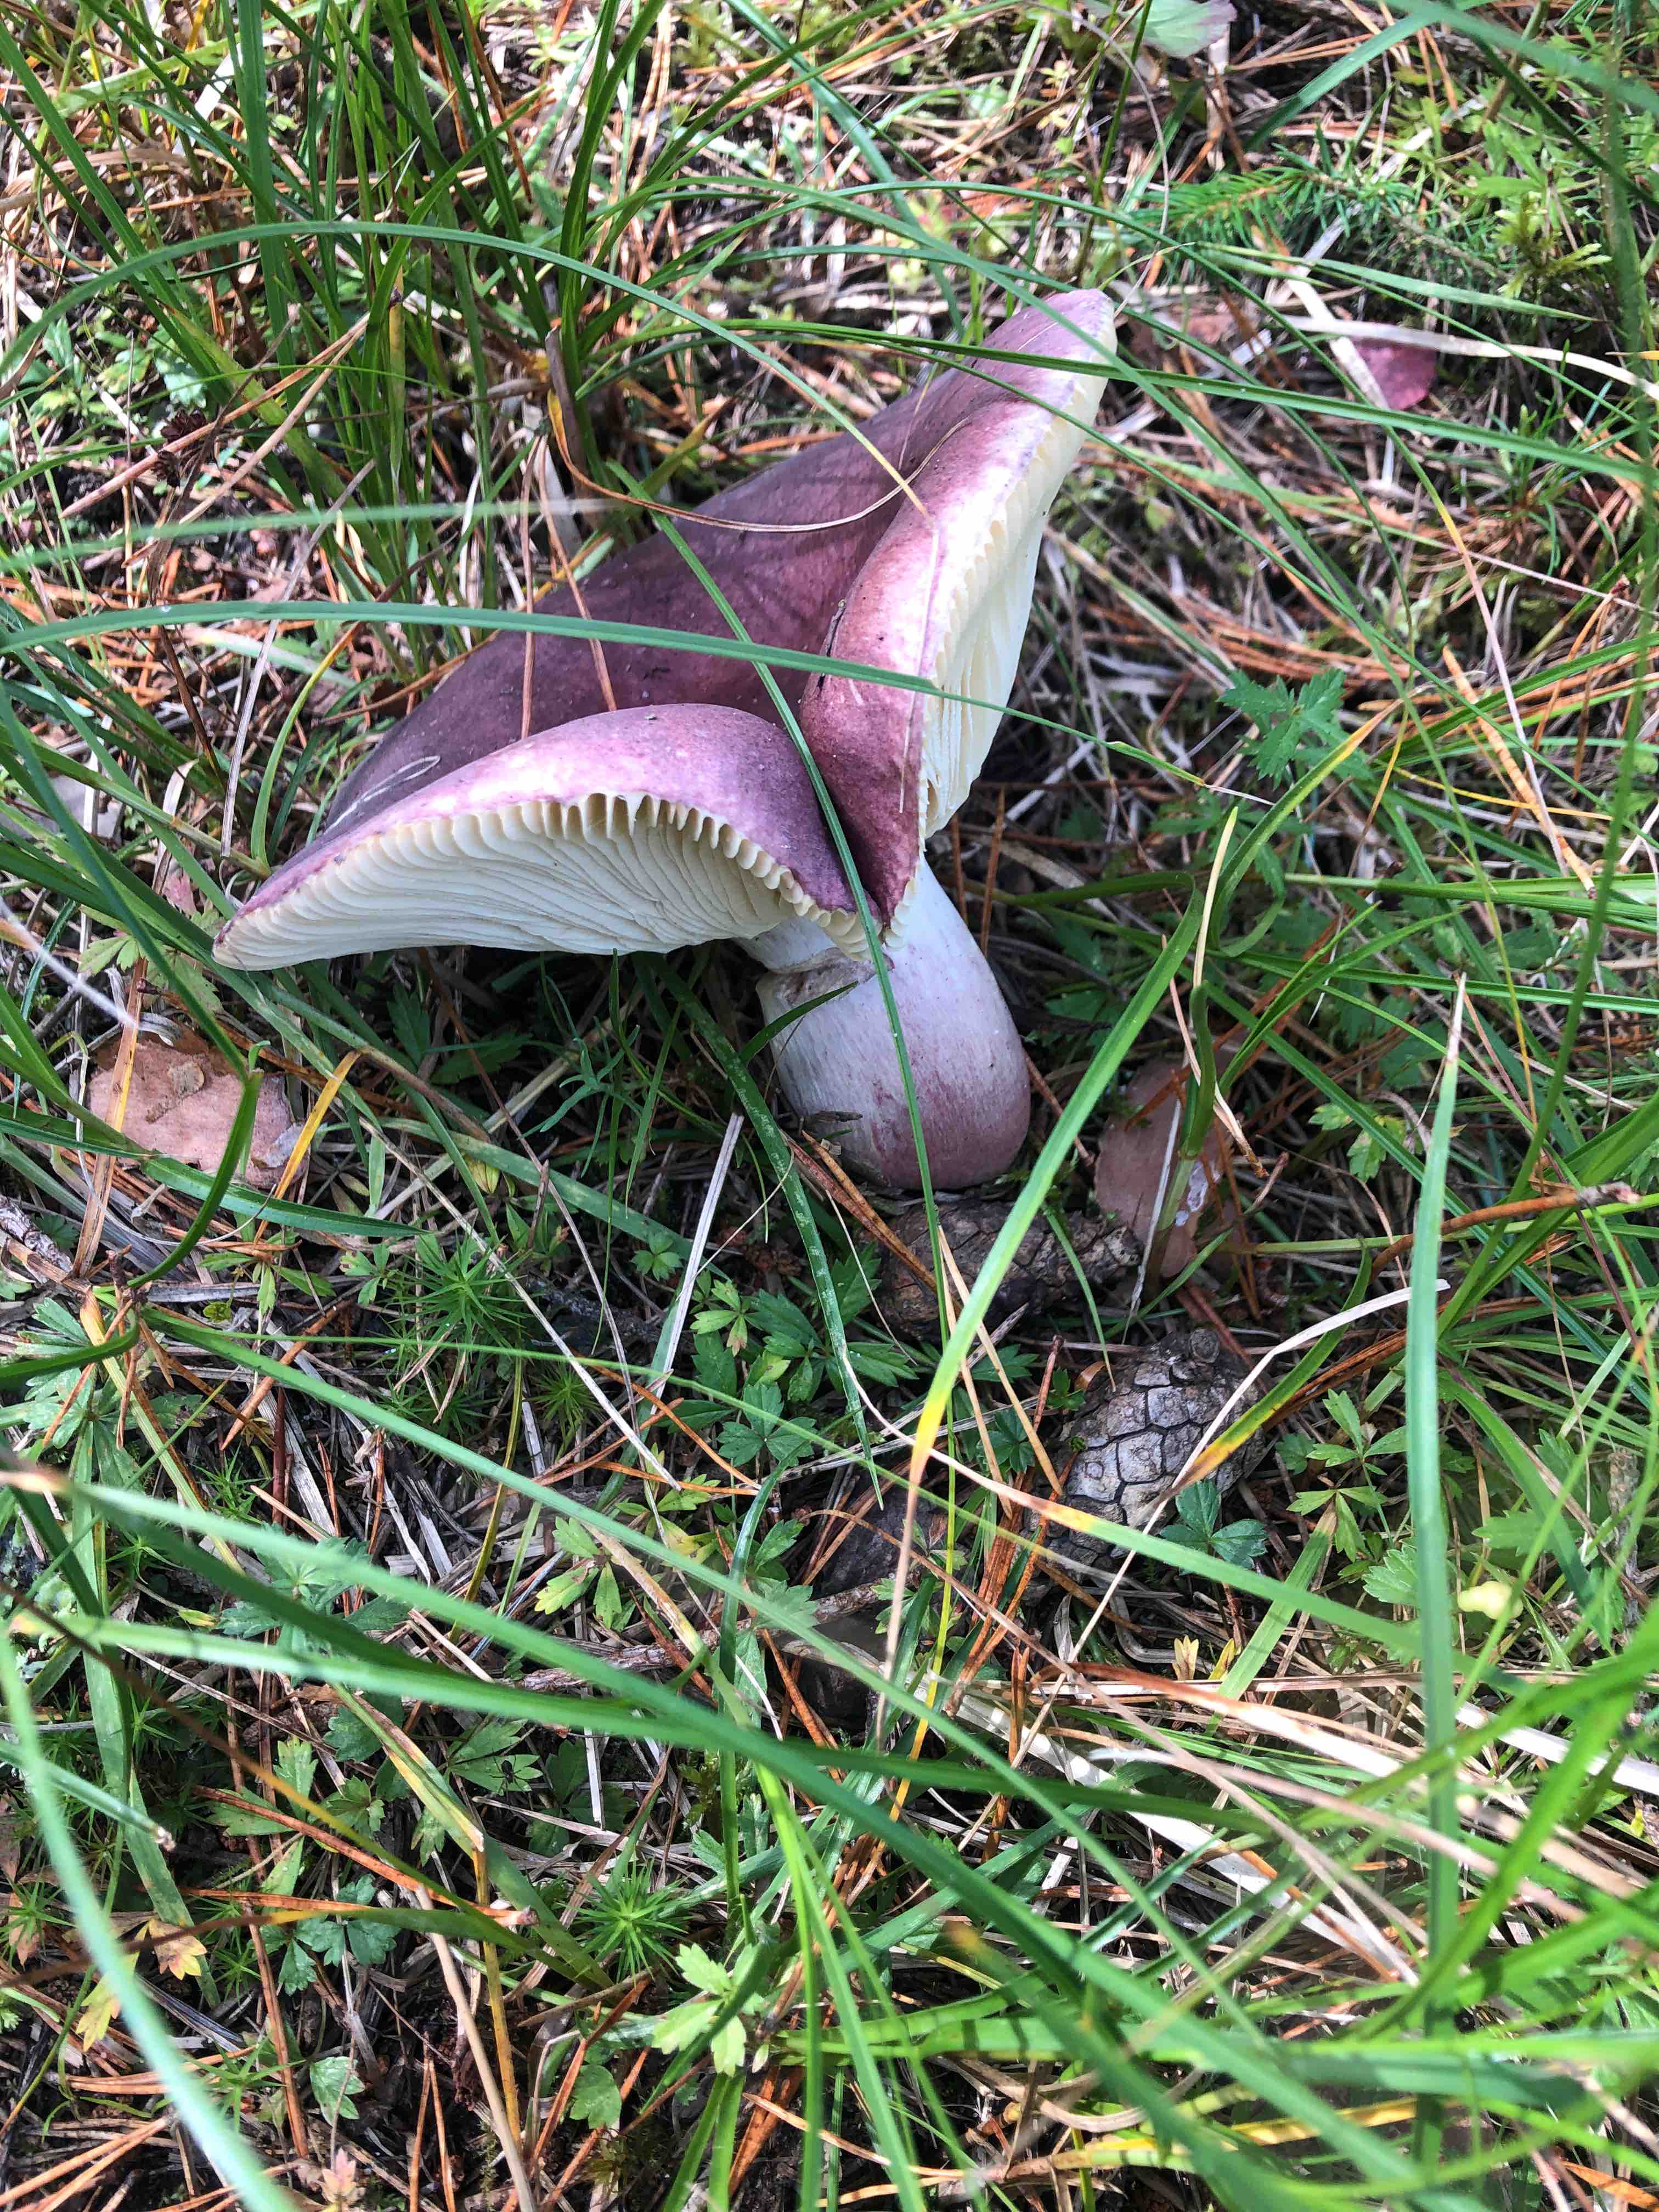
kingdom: Fungi
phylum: Basidiomycota
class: Agaricomycetes
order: Russulales
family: Russulaceae
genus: Russula
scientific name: Russula sardonia
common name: citronbladet skørhat
